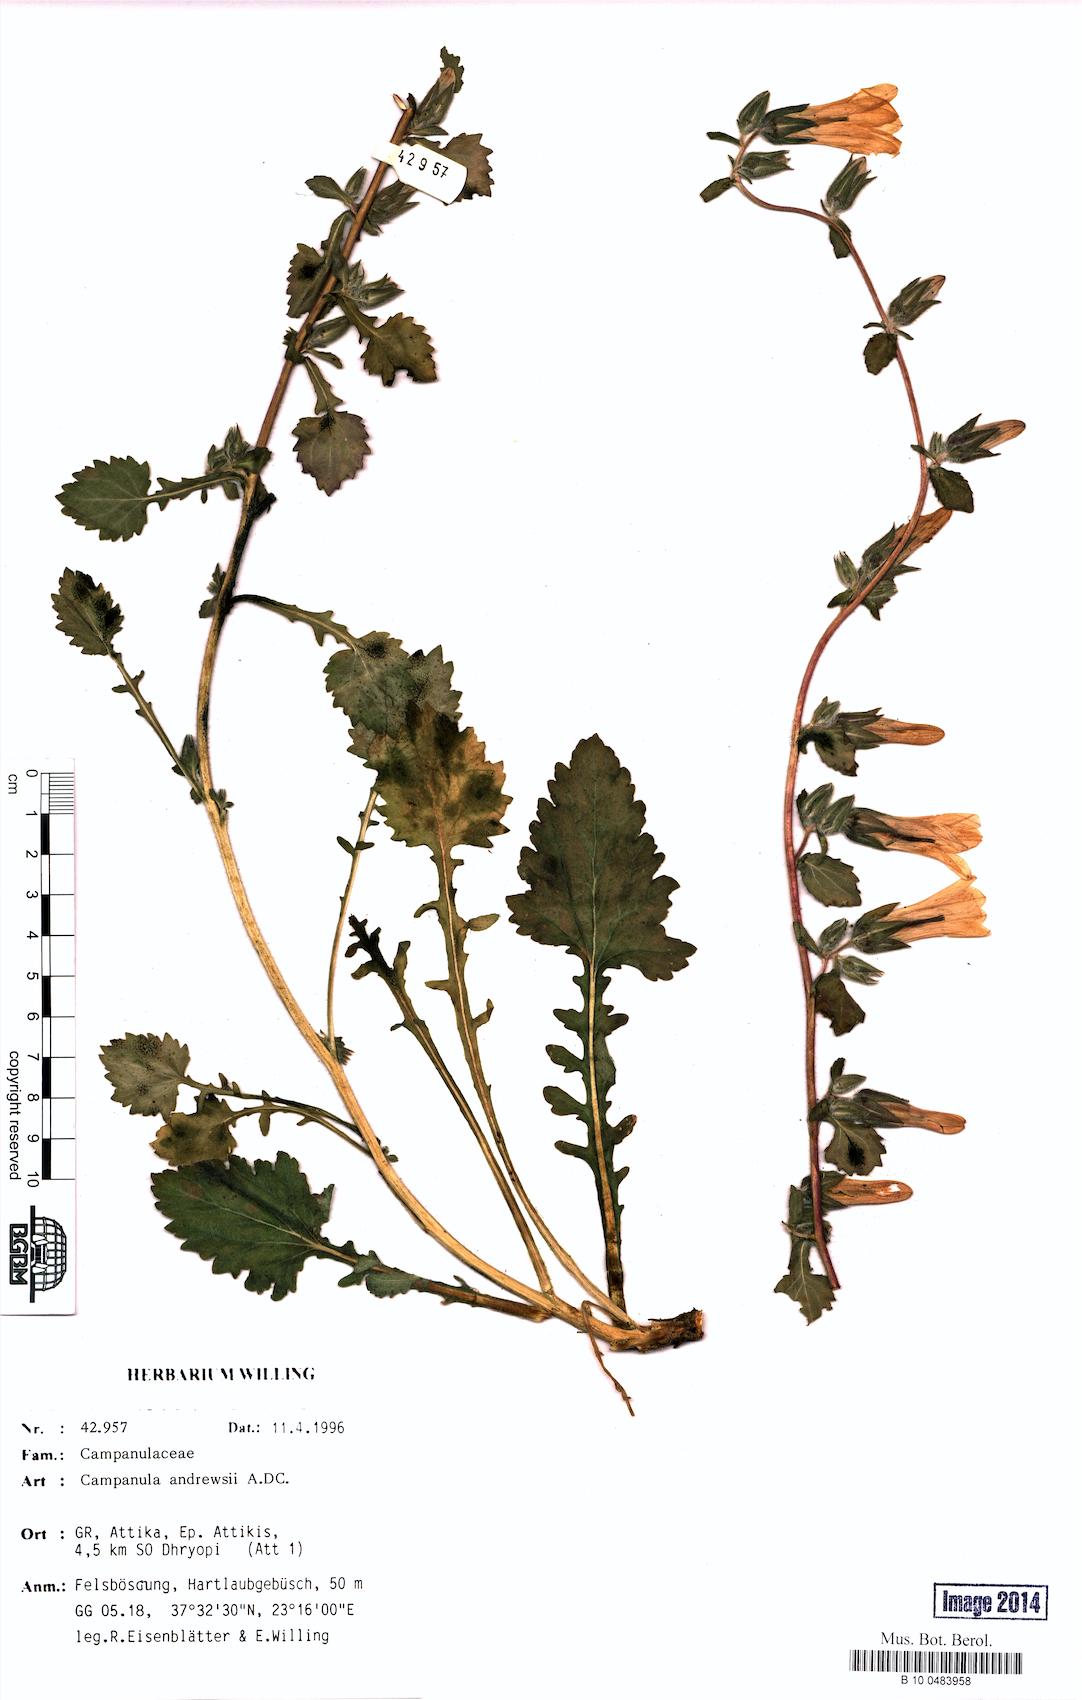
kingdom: Plantae
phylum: Tracheophyta
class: Magnoliopsida
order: Asterales
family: Campanulaceae
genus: Campanula
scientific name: Campanula andrewsii
